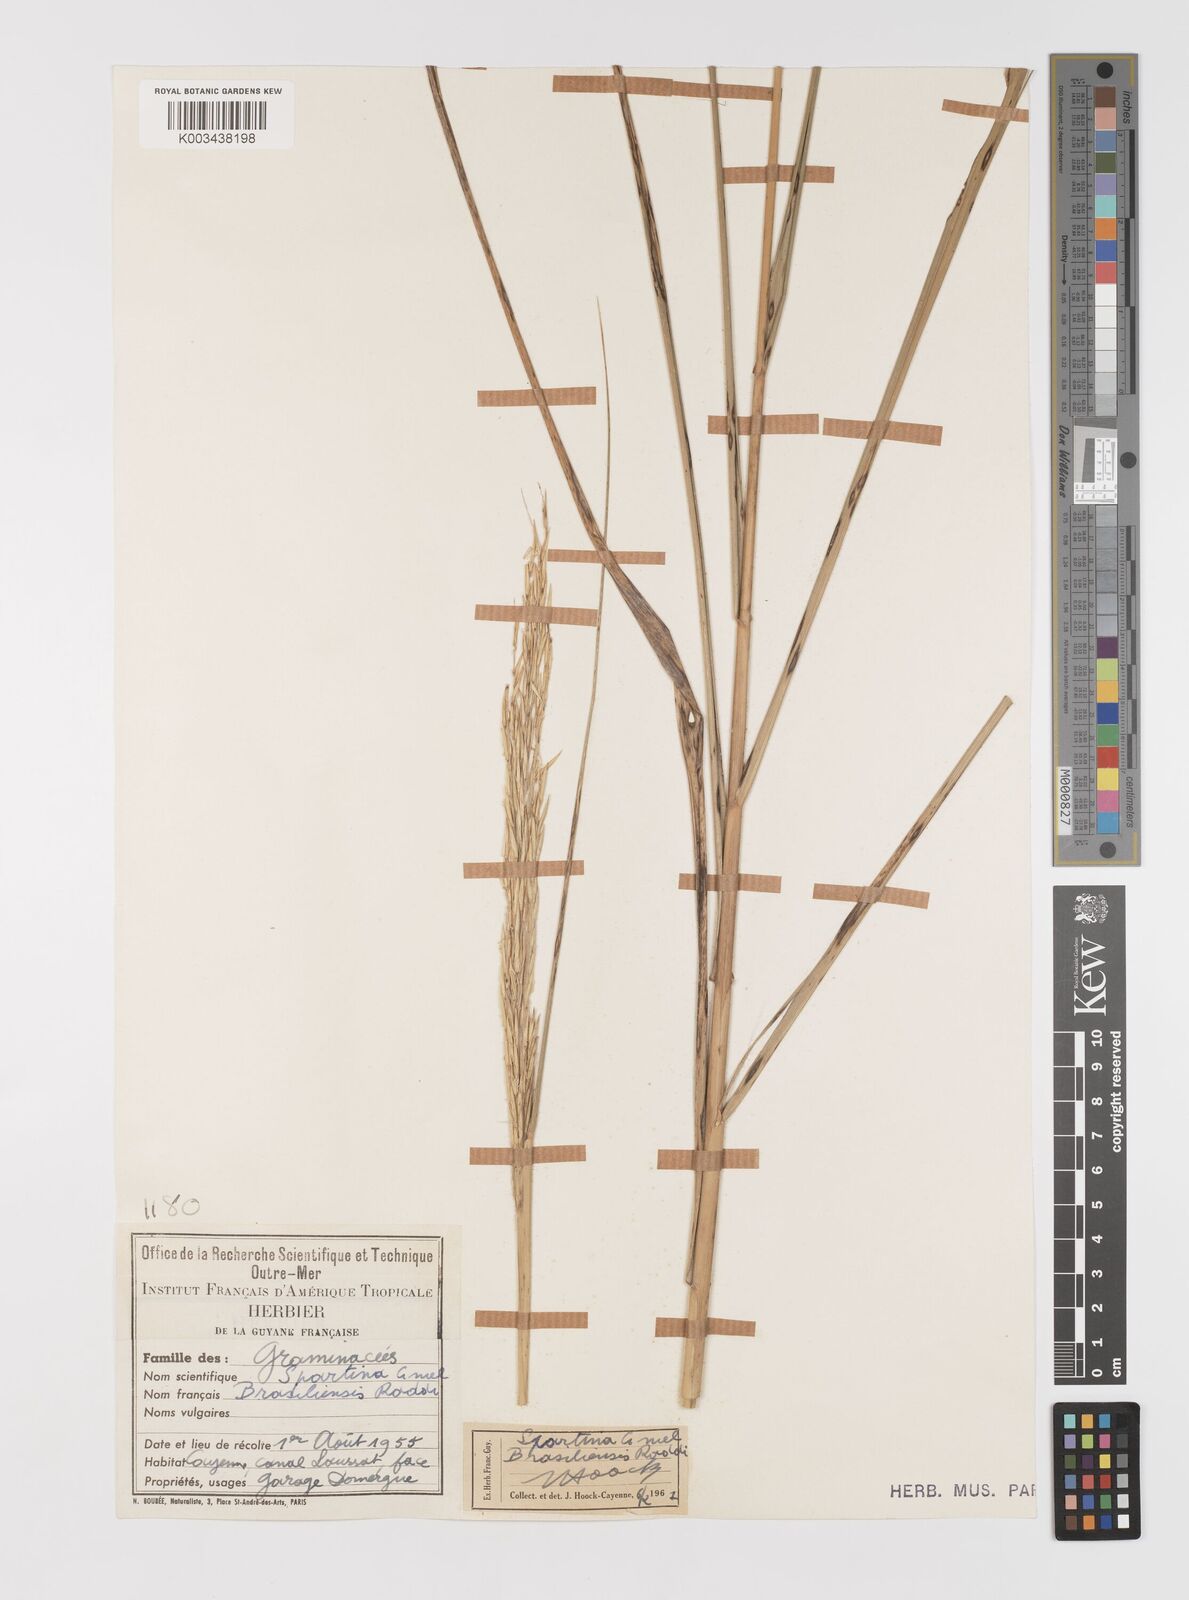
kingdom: Plantae
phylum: Tracheophyta
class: Liliopsida
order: Poales
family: Poaceae
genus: Sporobolus
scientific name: Sporobolus alterniflorus
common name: Atlantic cordgrass
